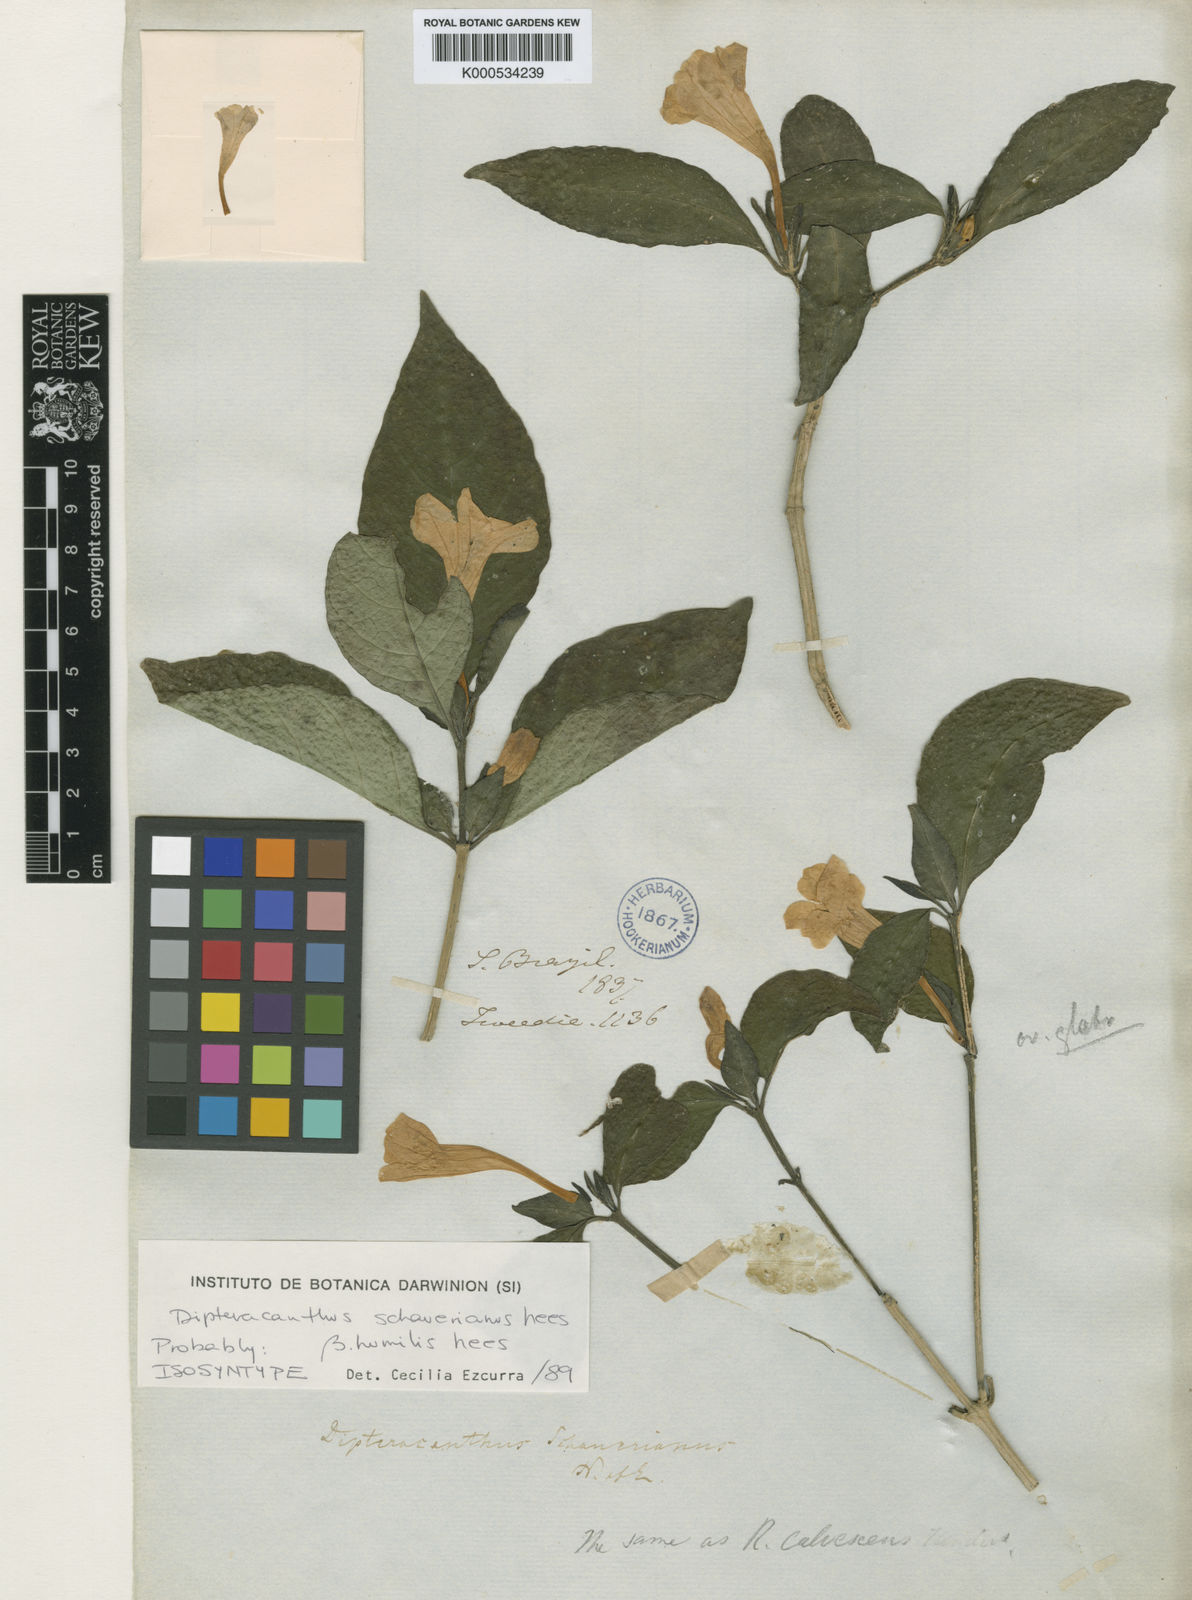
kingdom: Plantae
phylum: Tracheophyta
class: Magnoliopsida
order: Lamiales
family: Acanthaceae
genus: Ruellia
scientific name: Ruellia
